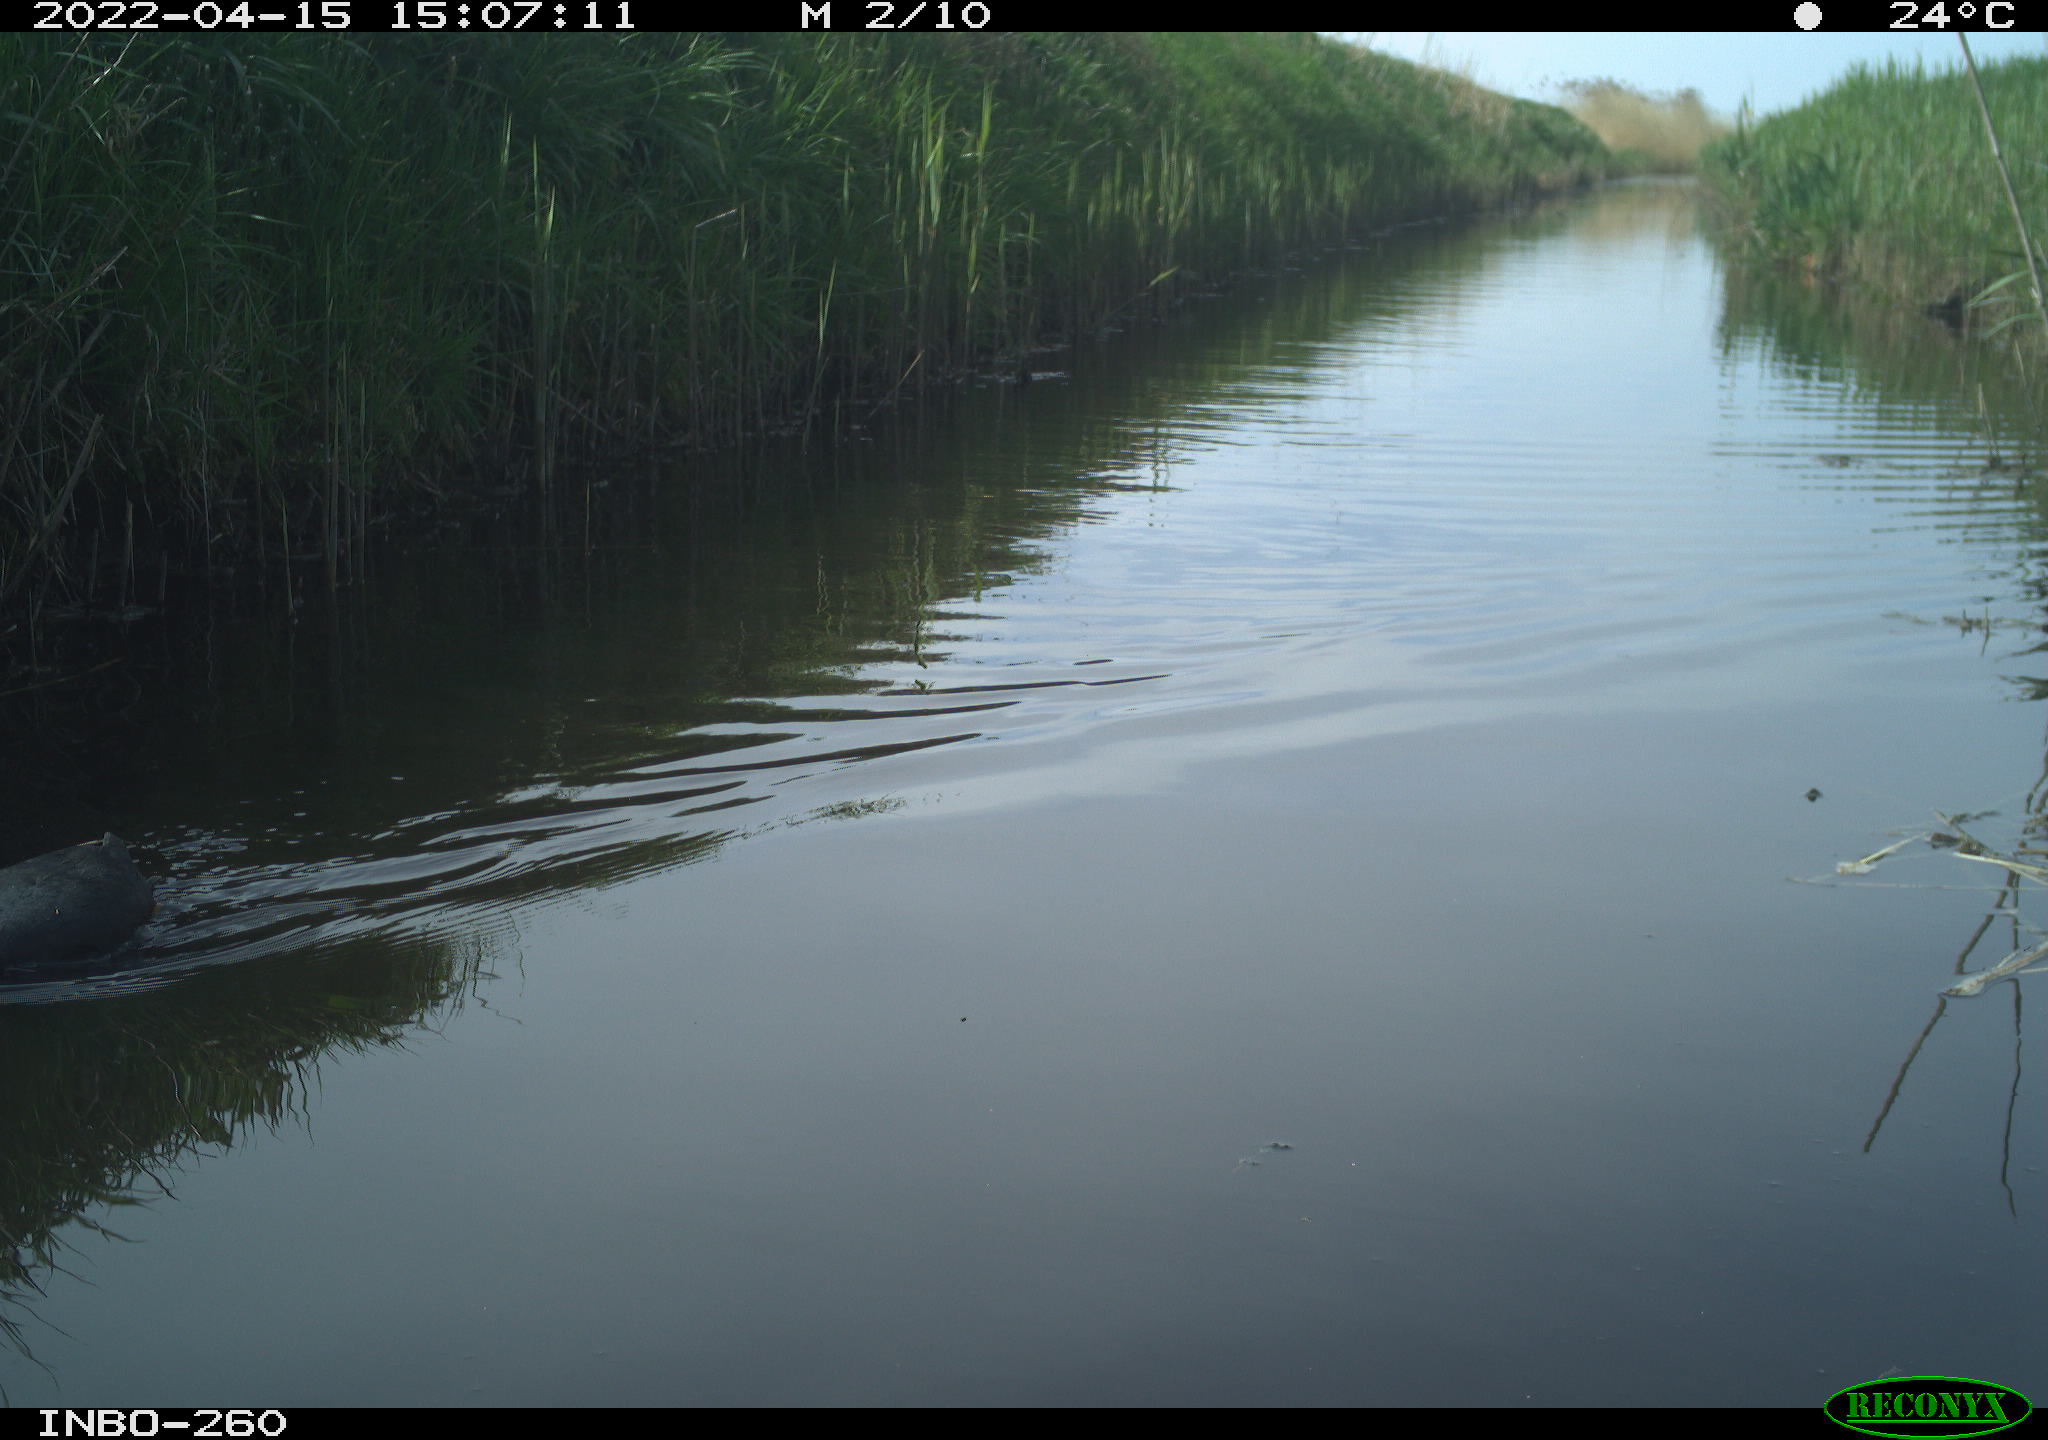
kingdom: Animalia
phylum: Chordata
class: Aves
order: Gruiformes
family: Rallidae
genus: Fulica
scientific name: Fulica atra
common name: Eurasian coot
